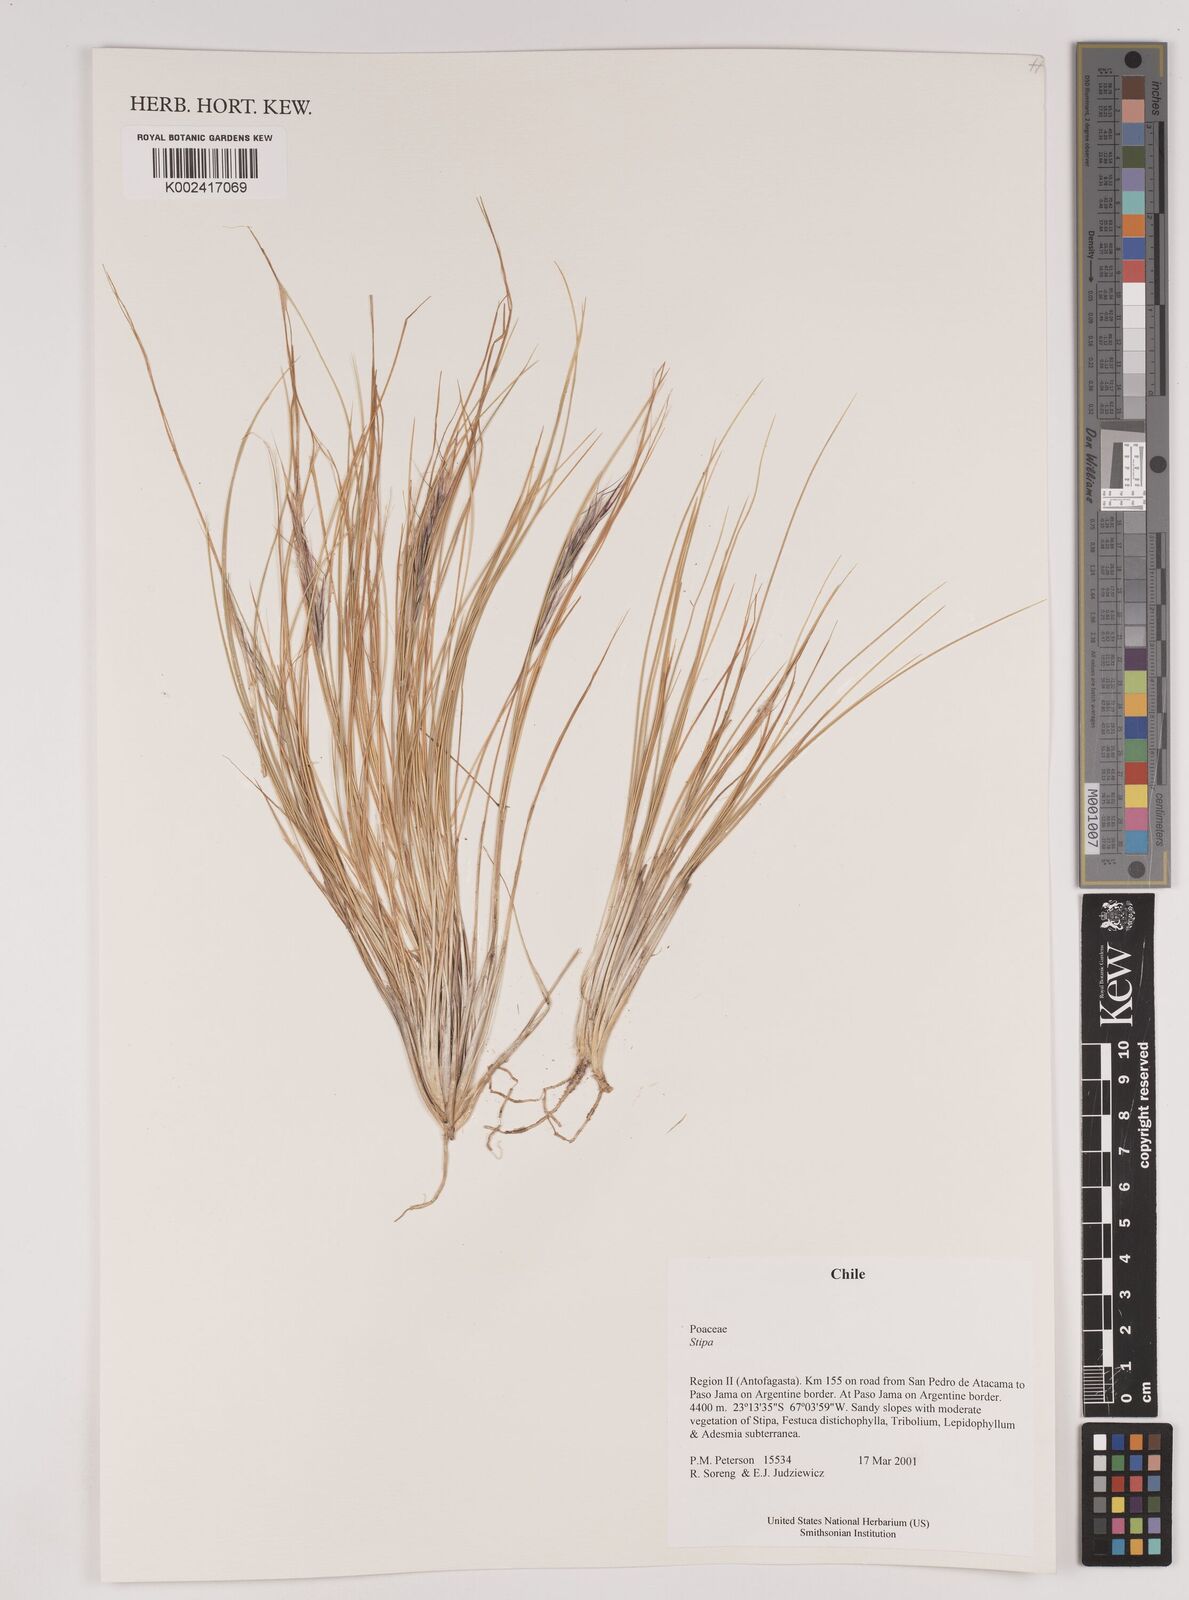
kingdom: Plantae
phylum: Tracheophyta
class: Liliopsida
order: Poales
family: Poaceae
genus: Pappostipa
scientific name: Pappostipa atacamensis
